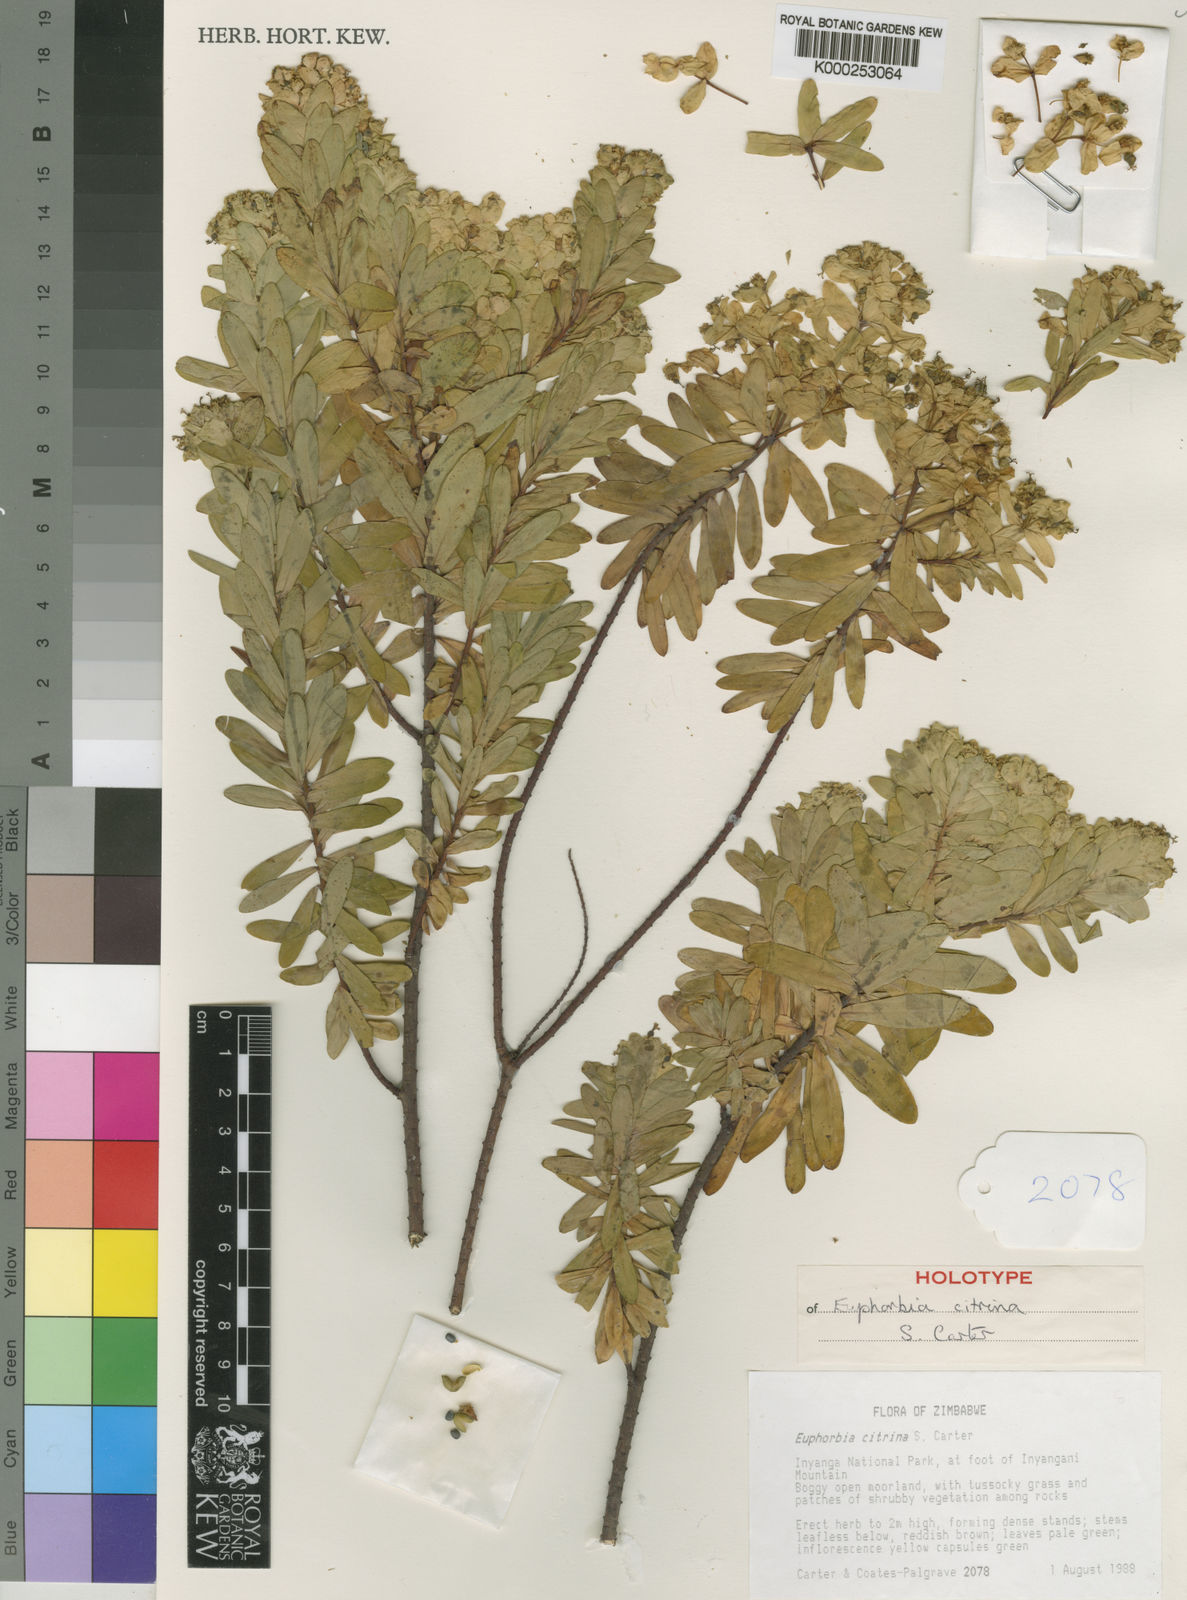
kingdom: Plantae
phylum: Tracheophyta
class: Magnoliopsida
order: Malpighiales
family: Euphorbiaceae
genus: Euphorbia
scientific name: Euphorbia citrina
